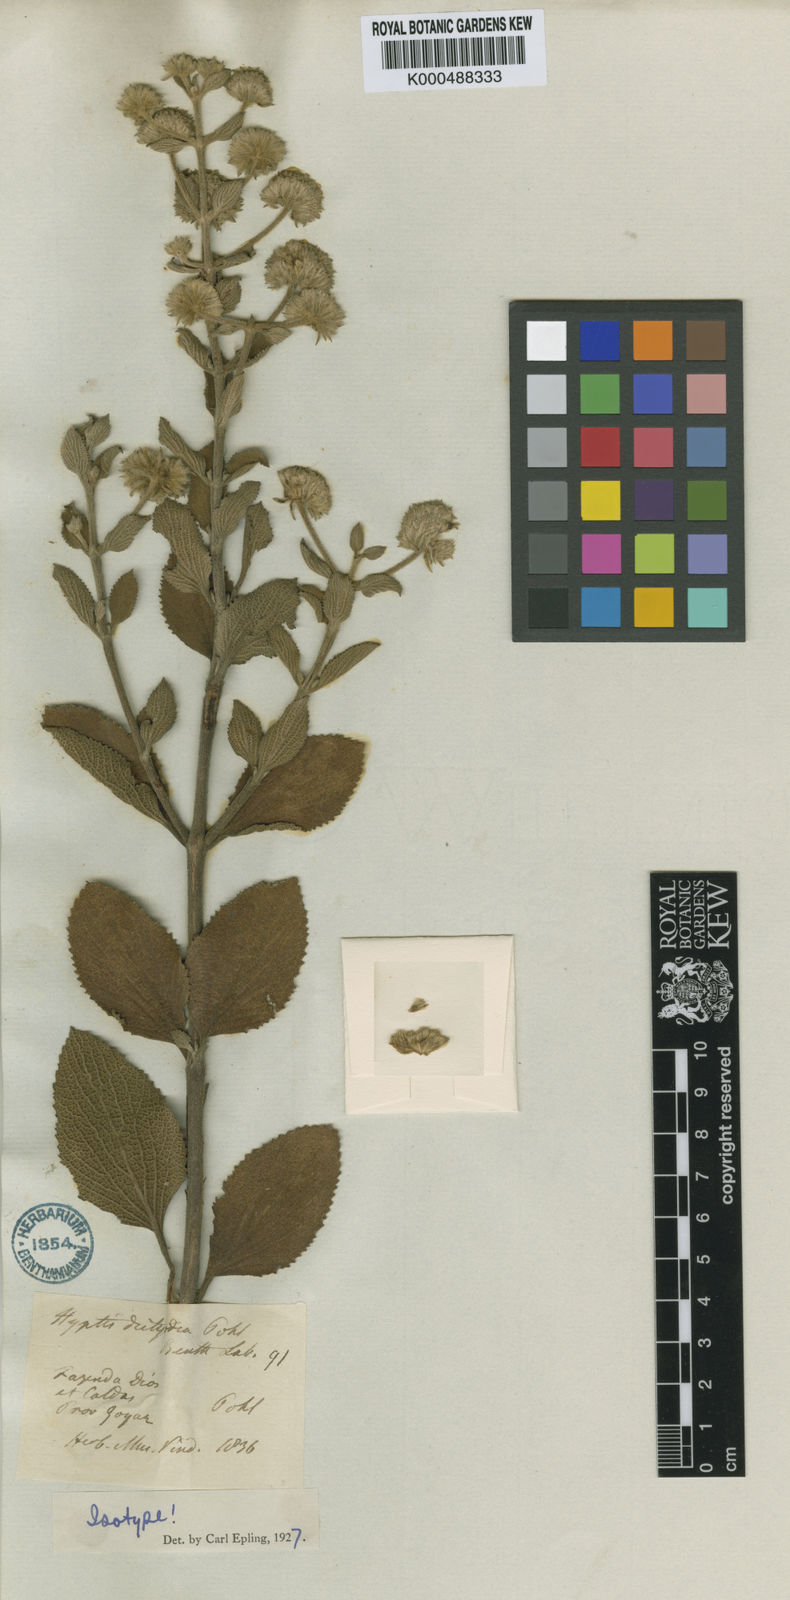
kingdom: Plantae
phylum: Tracheophyta
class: Magnoliopsida
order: Lamiales
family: Lamiaceae
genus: Hyptis
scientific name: Hyptis dictyodea
